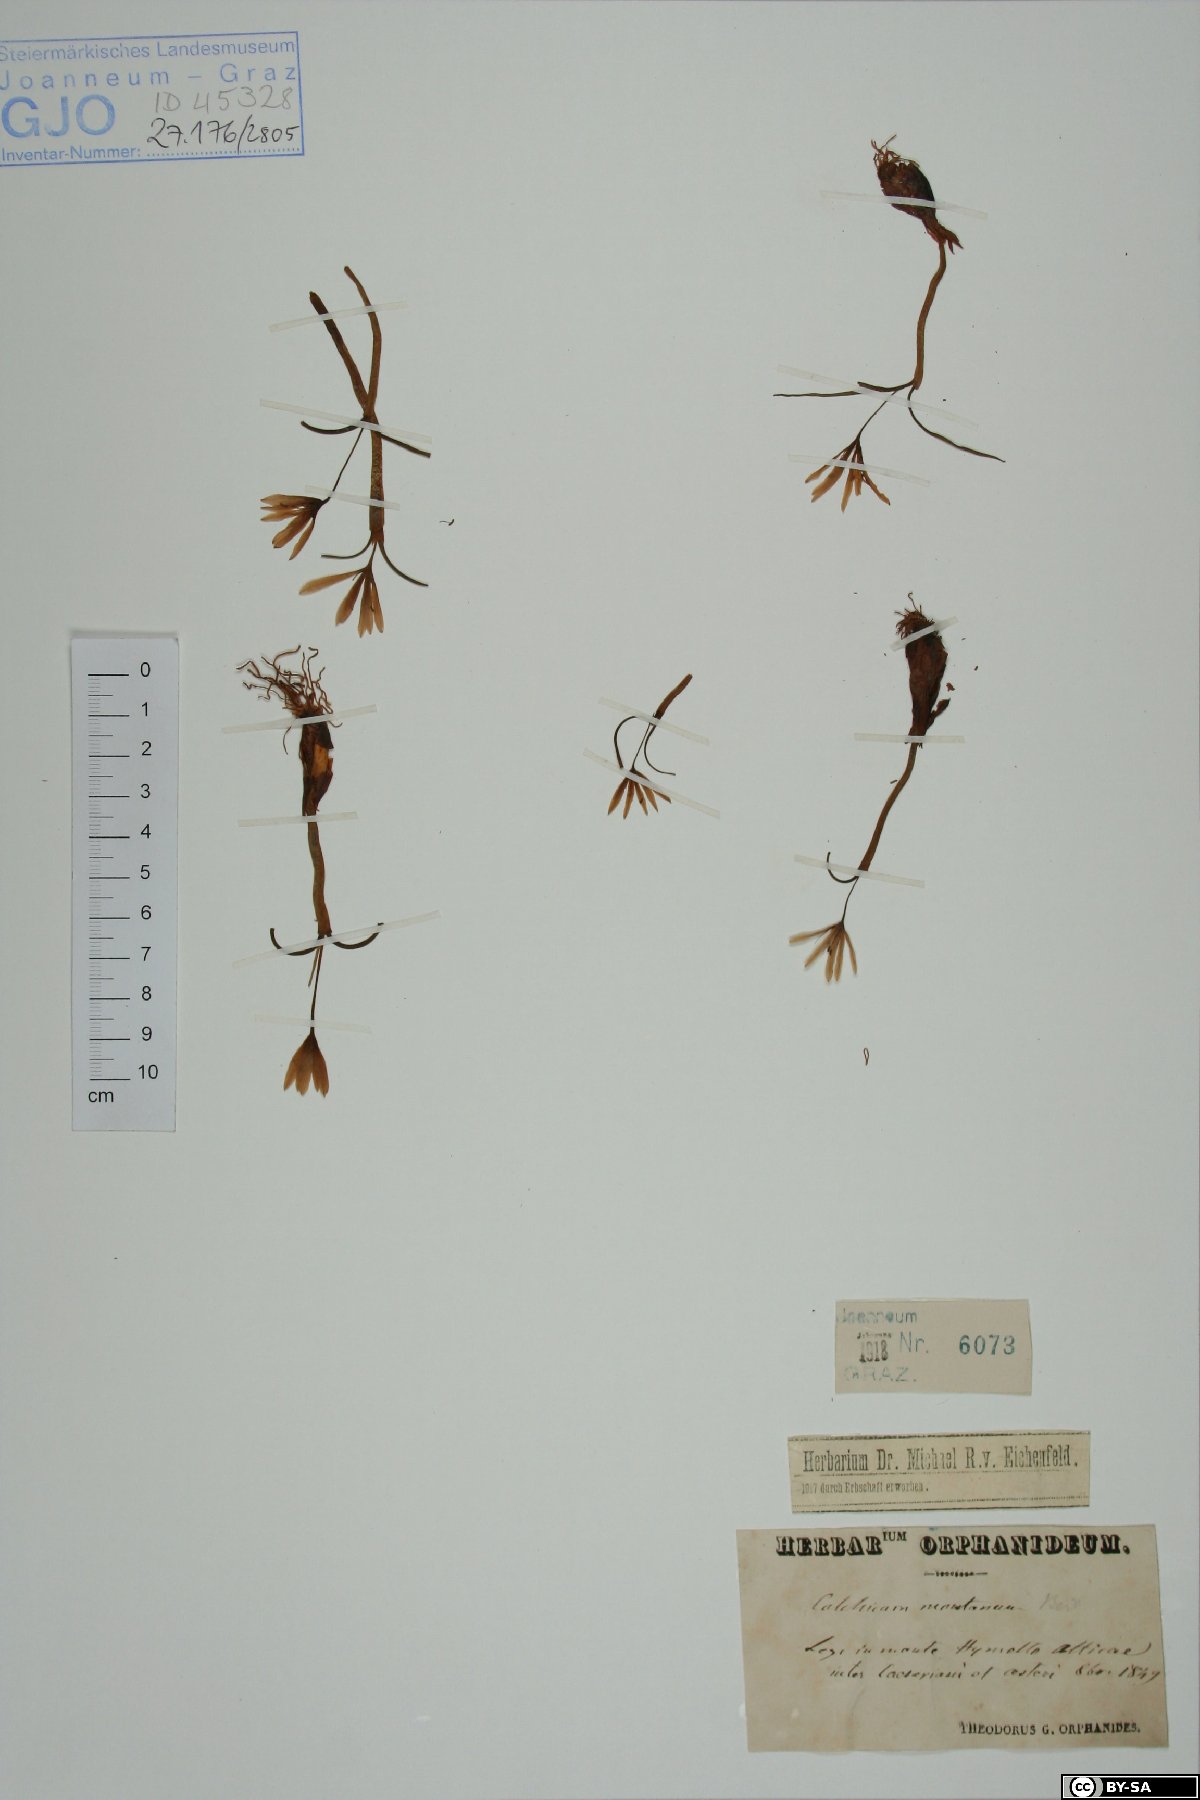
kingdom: Plantae
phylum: Tracheophyta
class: Liliopsida
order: Liliales
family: Colchicaceae
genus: Colchicum
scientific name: Colchicum montanum
